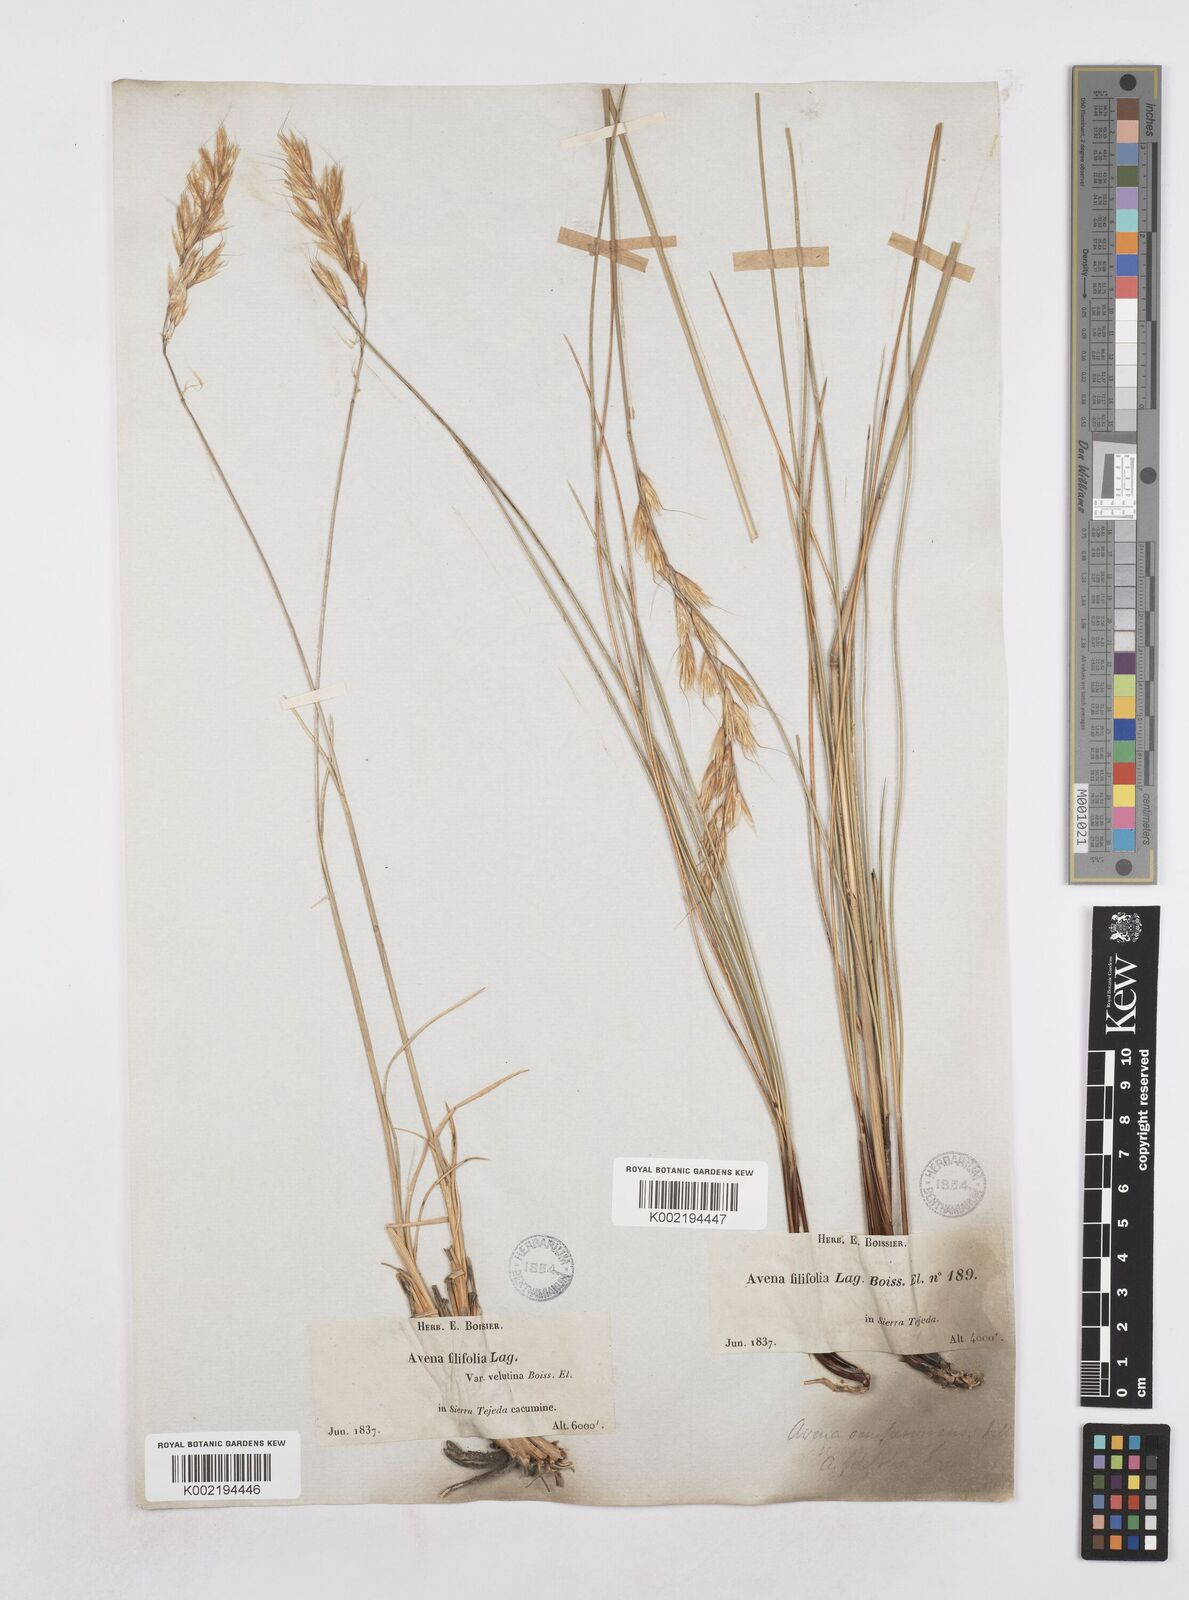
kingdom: Plantae
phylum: Tracheophyta
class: Liliopsida
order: Poales
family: Poaceae
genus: Helictotrichon
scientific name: Helictotrichon sempervirens
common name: Blue oat-grass
